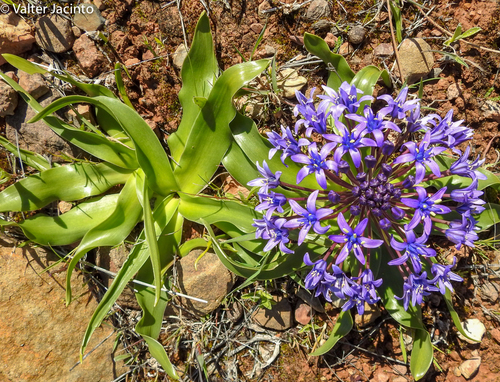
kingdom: Plantae
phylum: Tracheophyta
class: Liliopsida
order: Asparagales
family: Asparagaceae
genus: Scilla
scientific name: Scilla peruviana
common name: Portuguese squill
